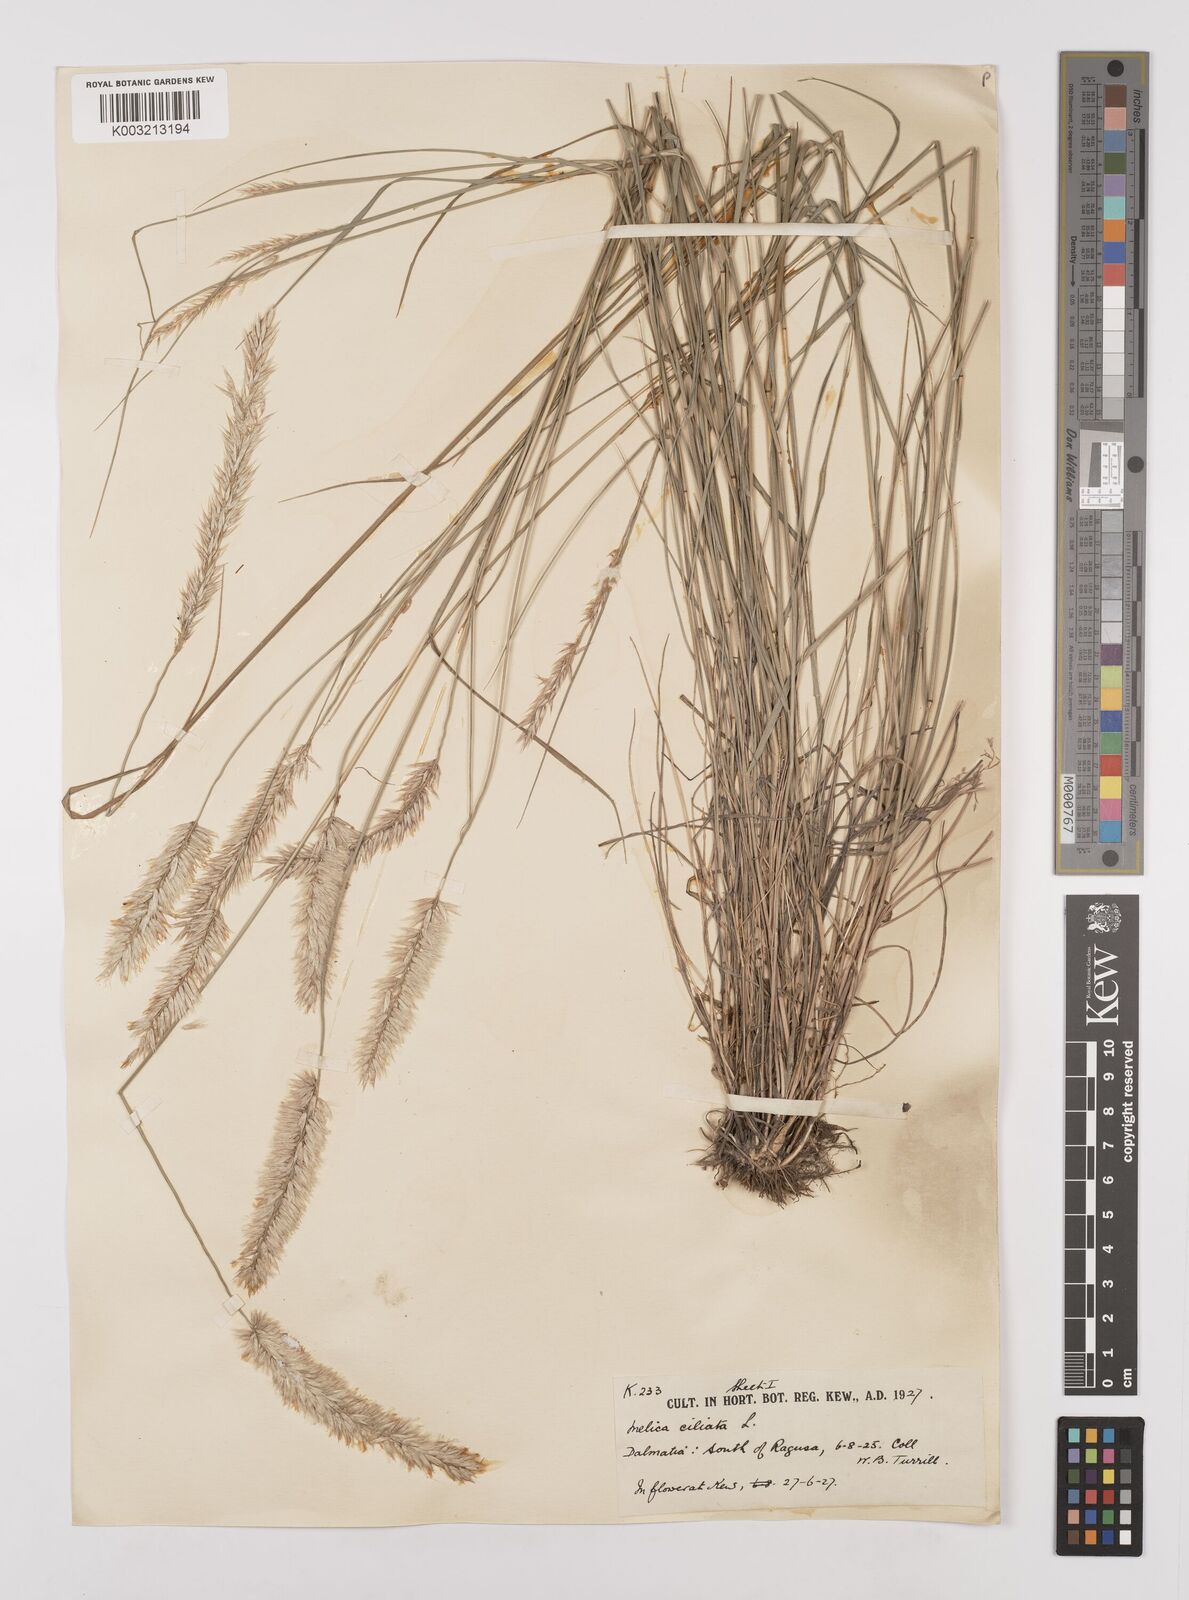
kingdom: Plantae
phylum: Tracheophyta
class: Liliopsida
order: Poales
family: Poaceae
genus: Melica
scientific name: Melica ciliata
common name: Hairy melicgrass
